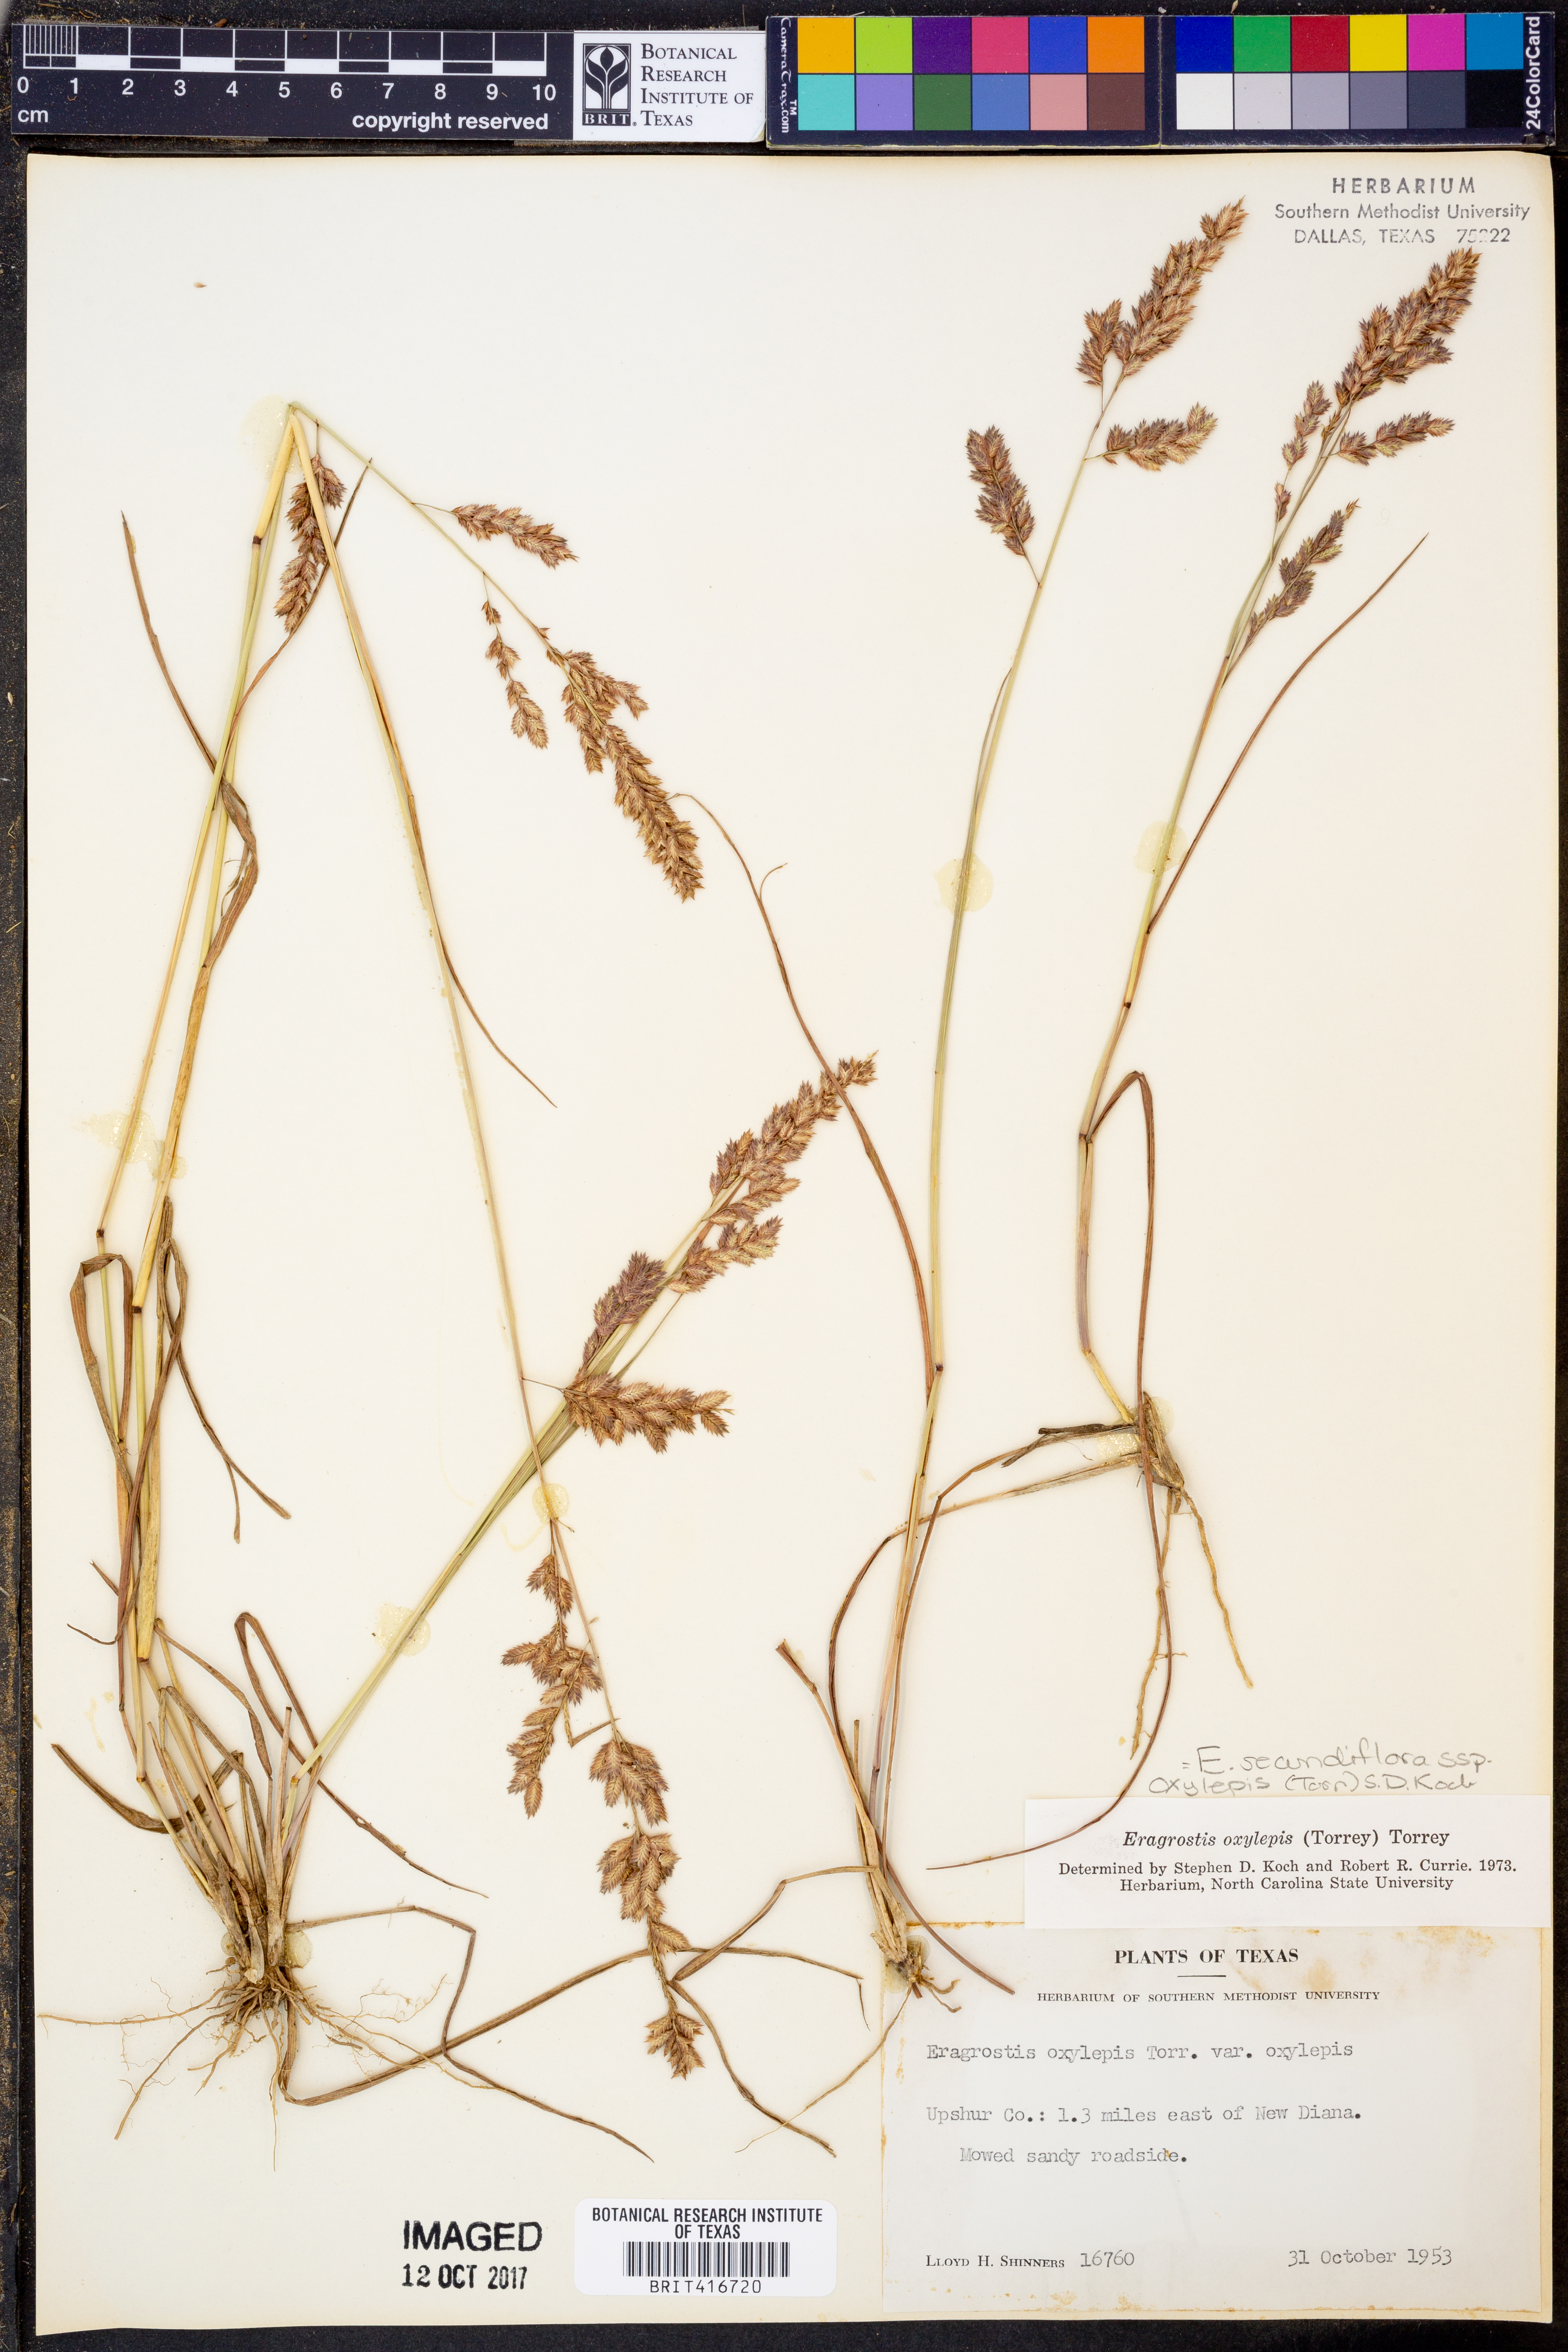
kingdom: Plantae
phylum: Tracheophyta
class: Liliopsida
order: Poales
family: Poaceae
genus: Eragrostis
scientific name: Eragrostis secundiflora
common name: Red love grass
